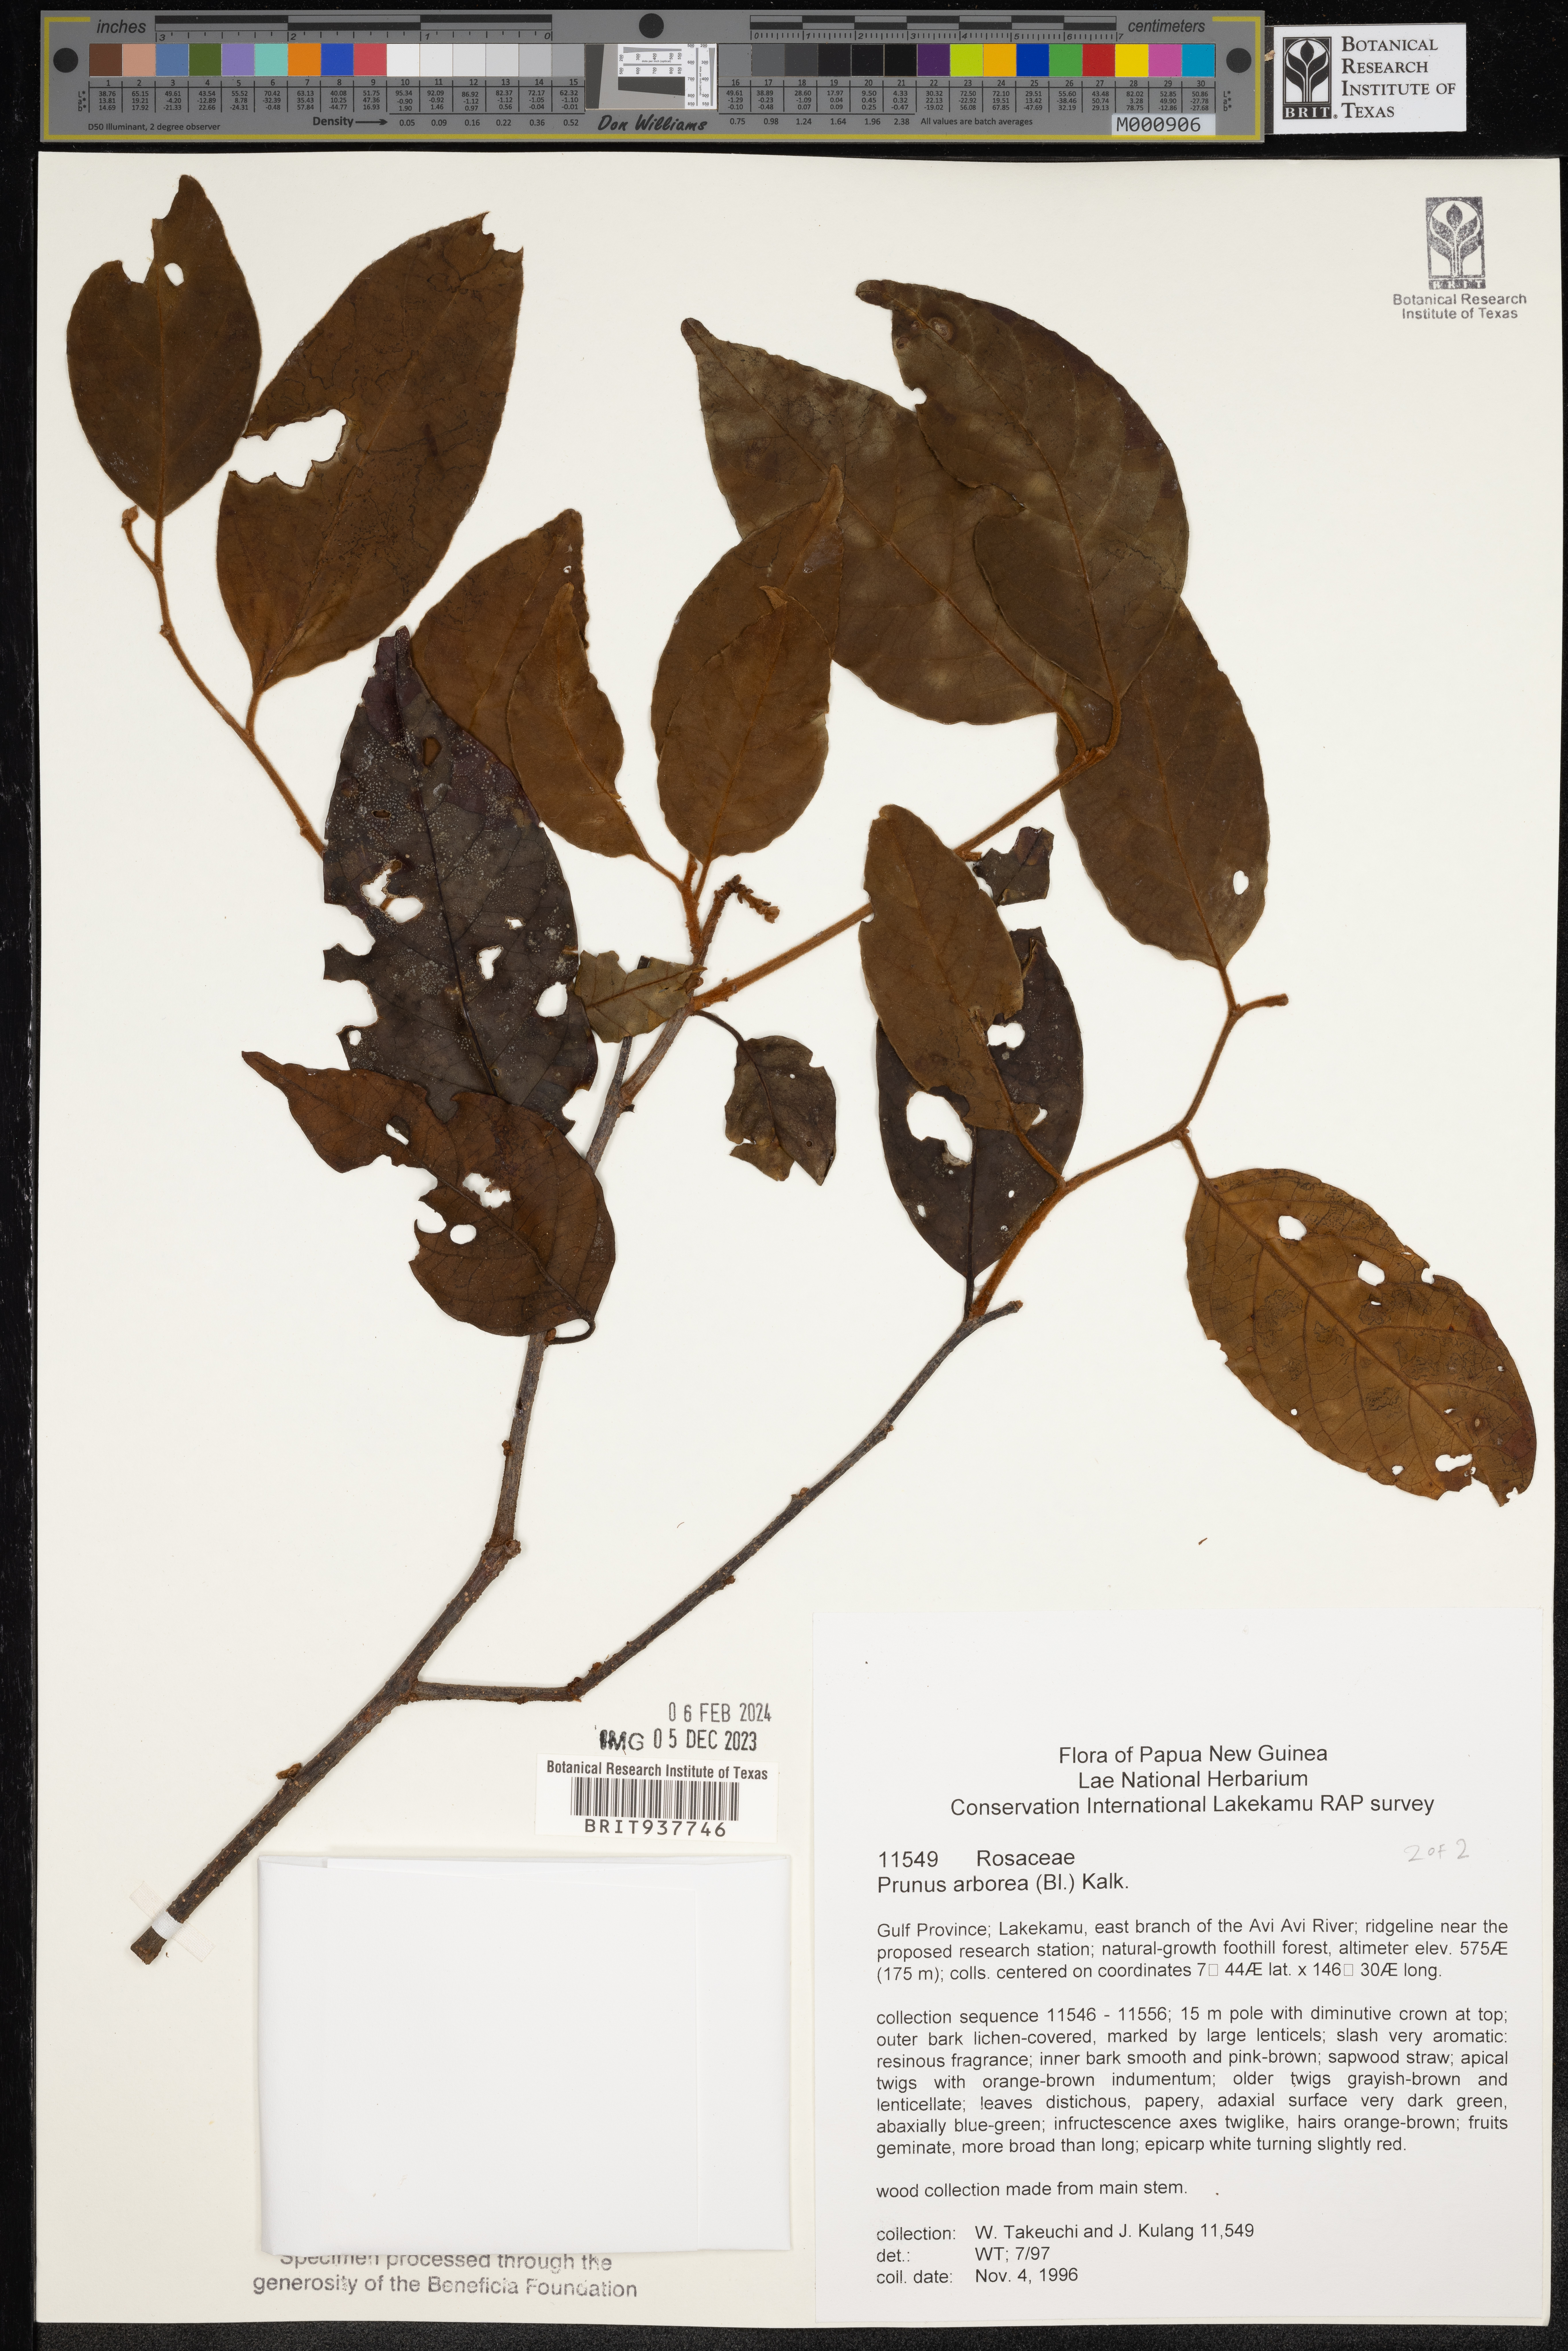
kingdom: Plantae
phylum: Tracheophyta
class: Magnoliopsida
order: Rosales
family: Rosaceae
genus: Prunus
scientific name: Prunus
